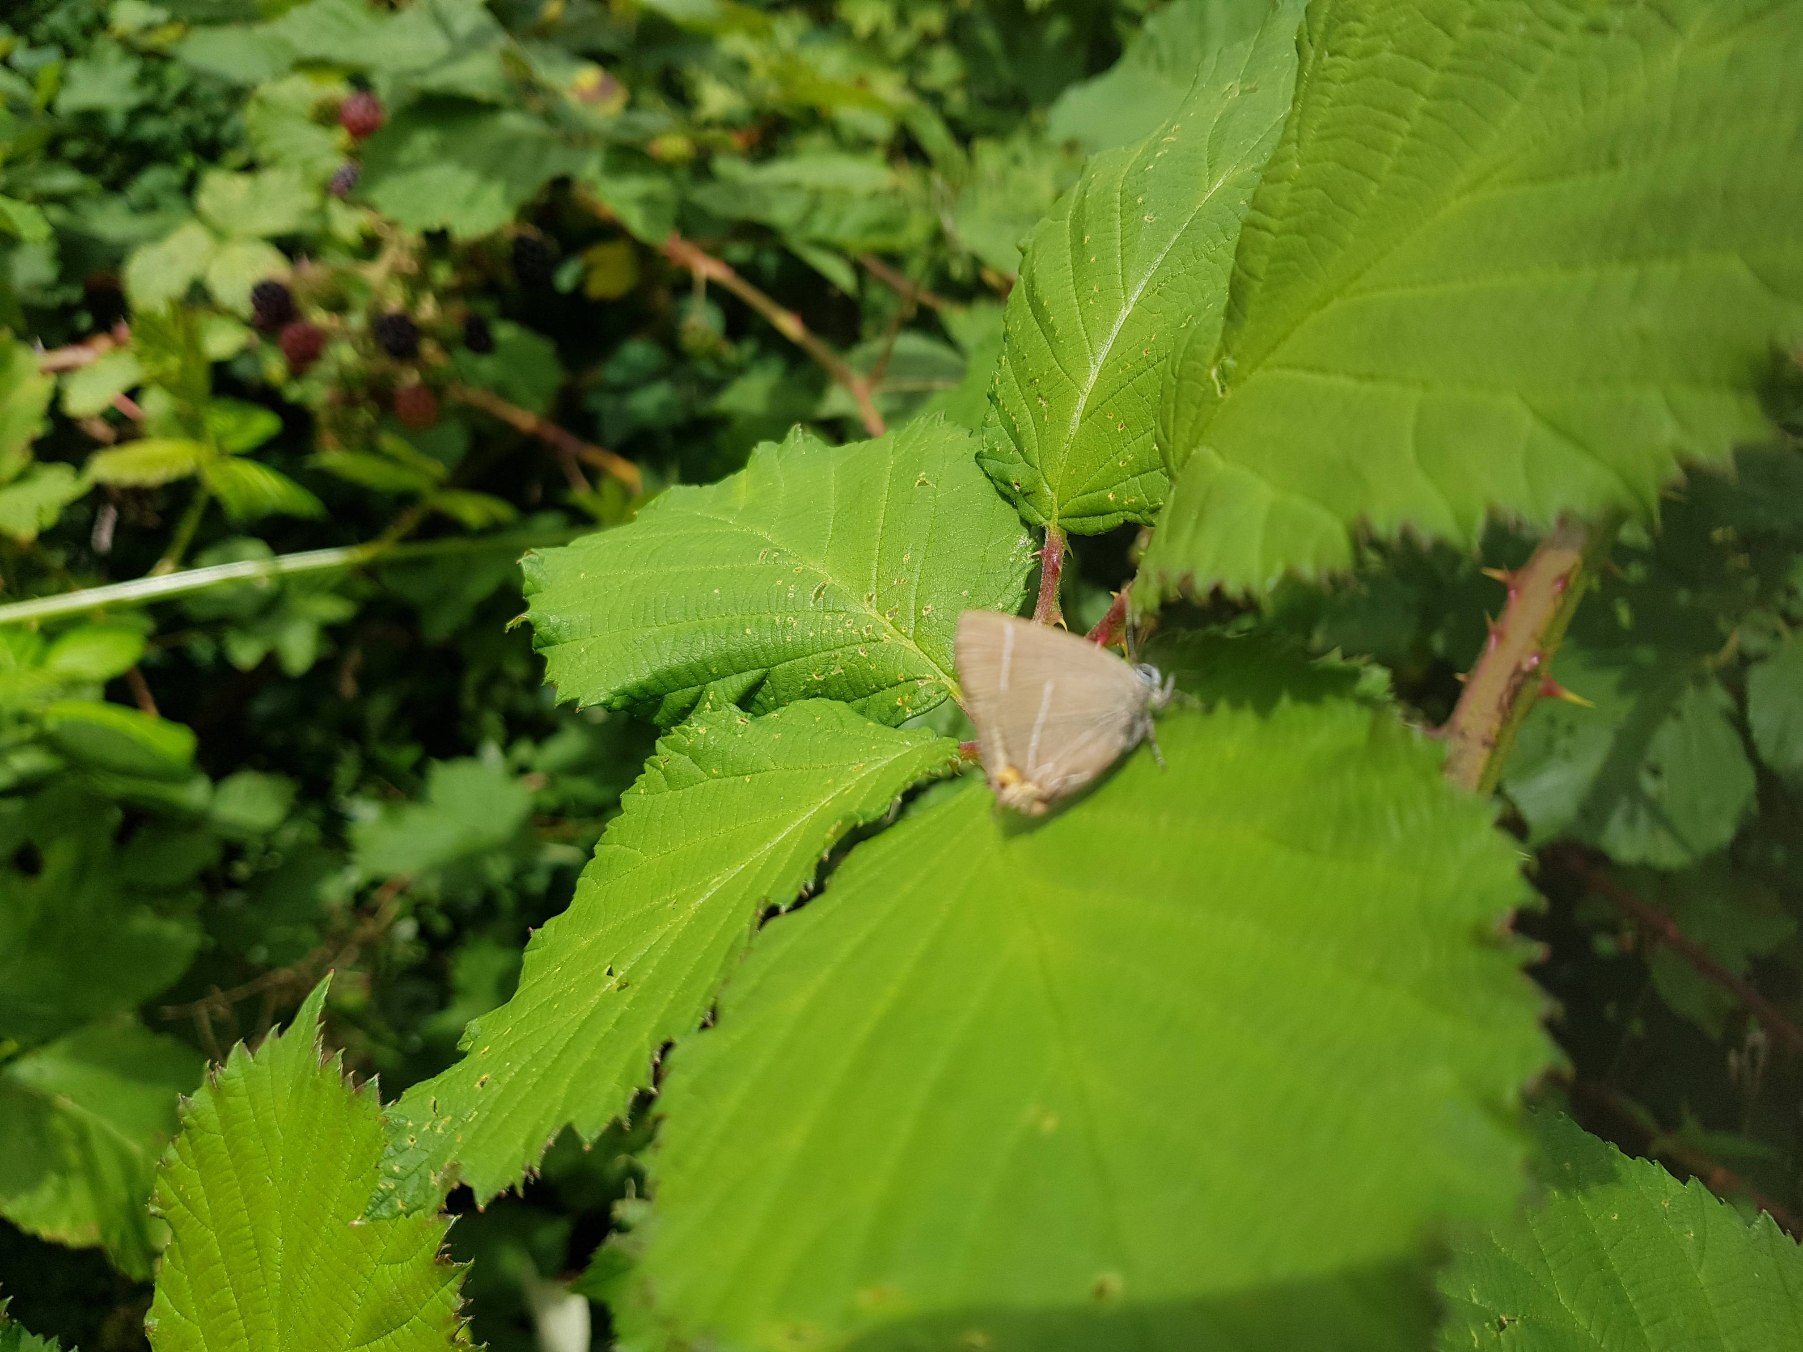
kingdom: Animalia
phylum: Arthropoda
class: Insecta
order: Lepidoptera
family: Lycaenidae
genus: Satyrium
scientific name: Satyrium w-album
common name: Det hvide W
